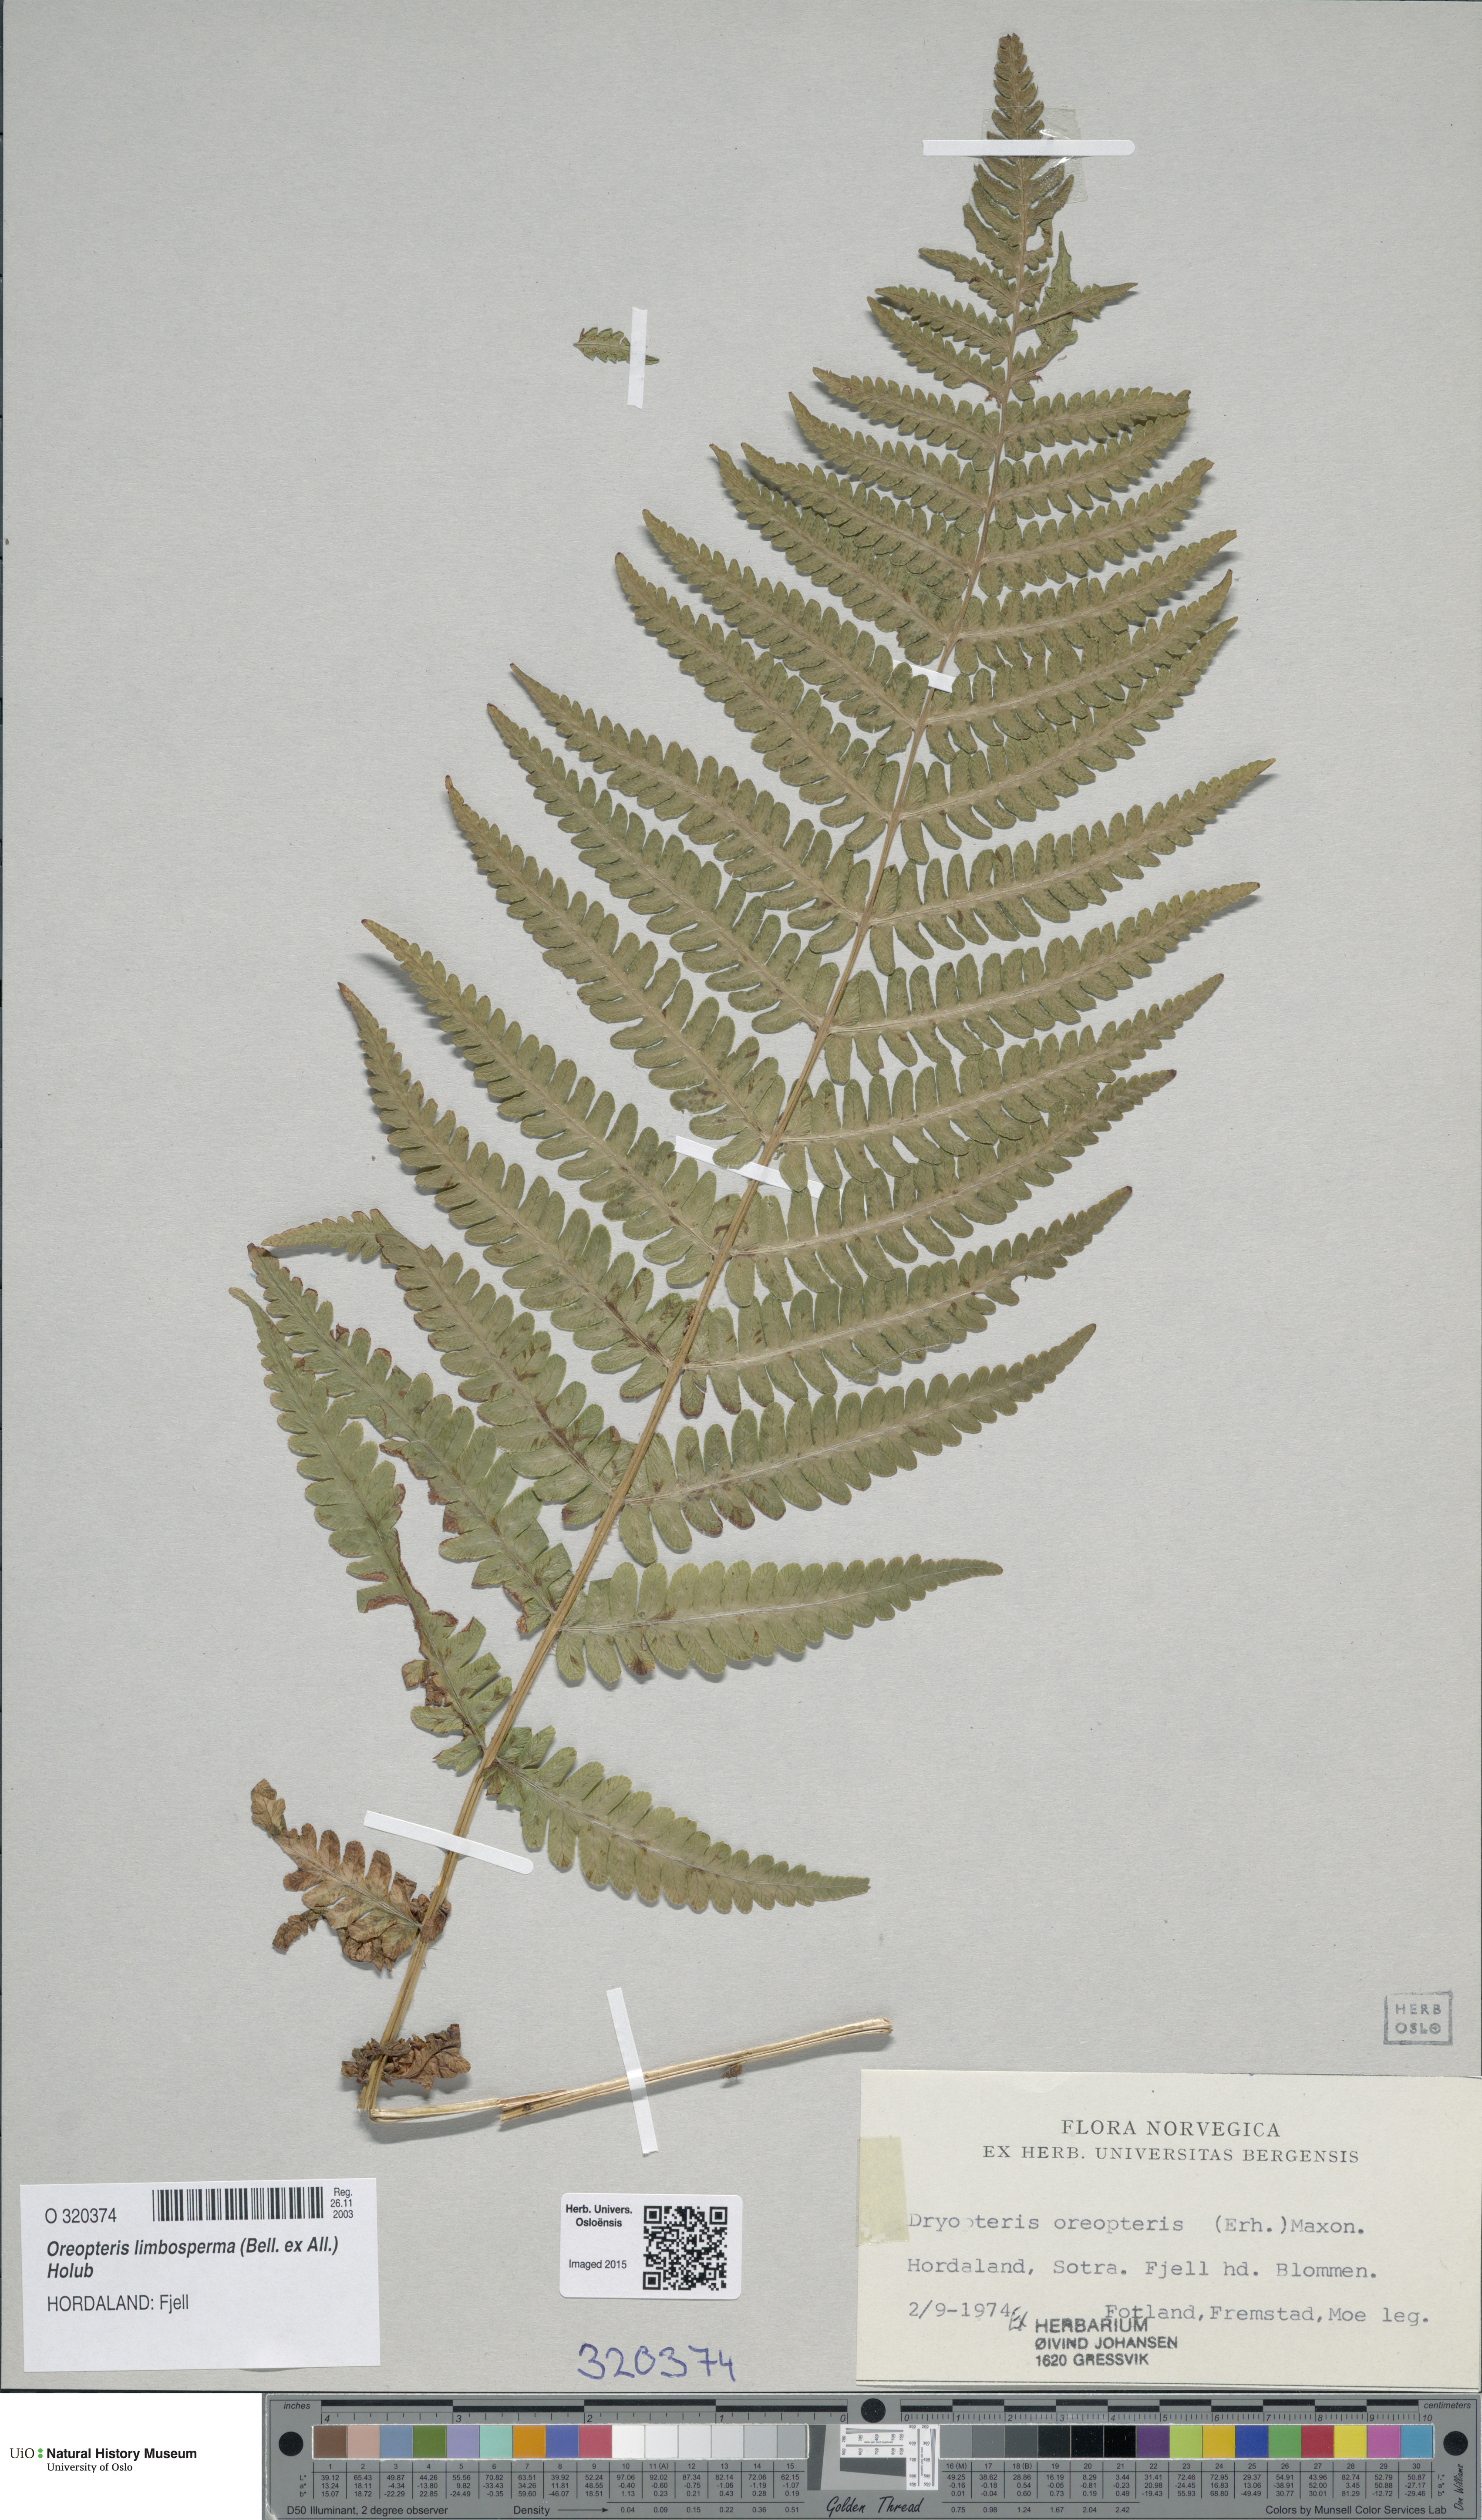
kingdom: Plantae
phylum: Tracheophyta
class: Polypodiopsida
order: Polypodiales
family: Thelypteridaceae
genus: Oreopteris
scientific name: Oreopteris limbosperma
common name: Lemon-scented fern
